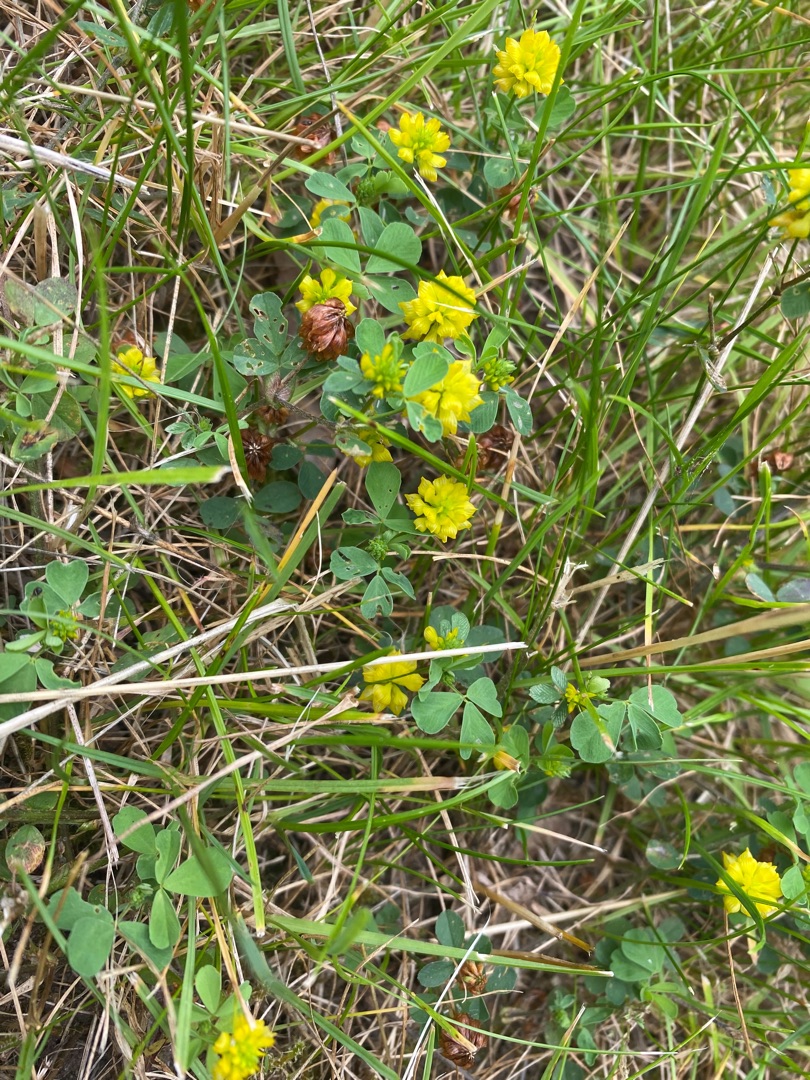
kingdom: Plantae
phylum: Tracheophyta
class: Magnoliopsida
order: Fabales
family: Fabaceae
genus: Trifolium
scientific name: Trifolium campestre
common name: Gul kløver
